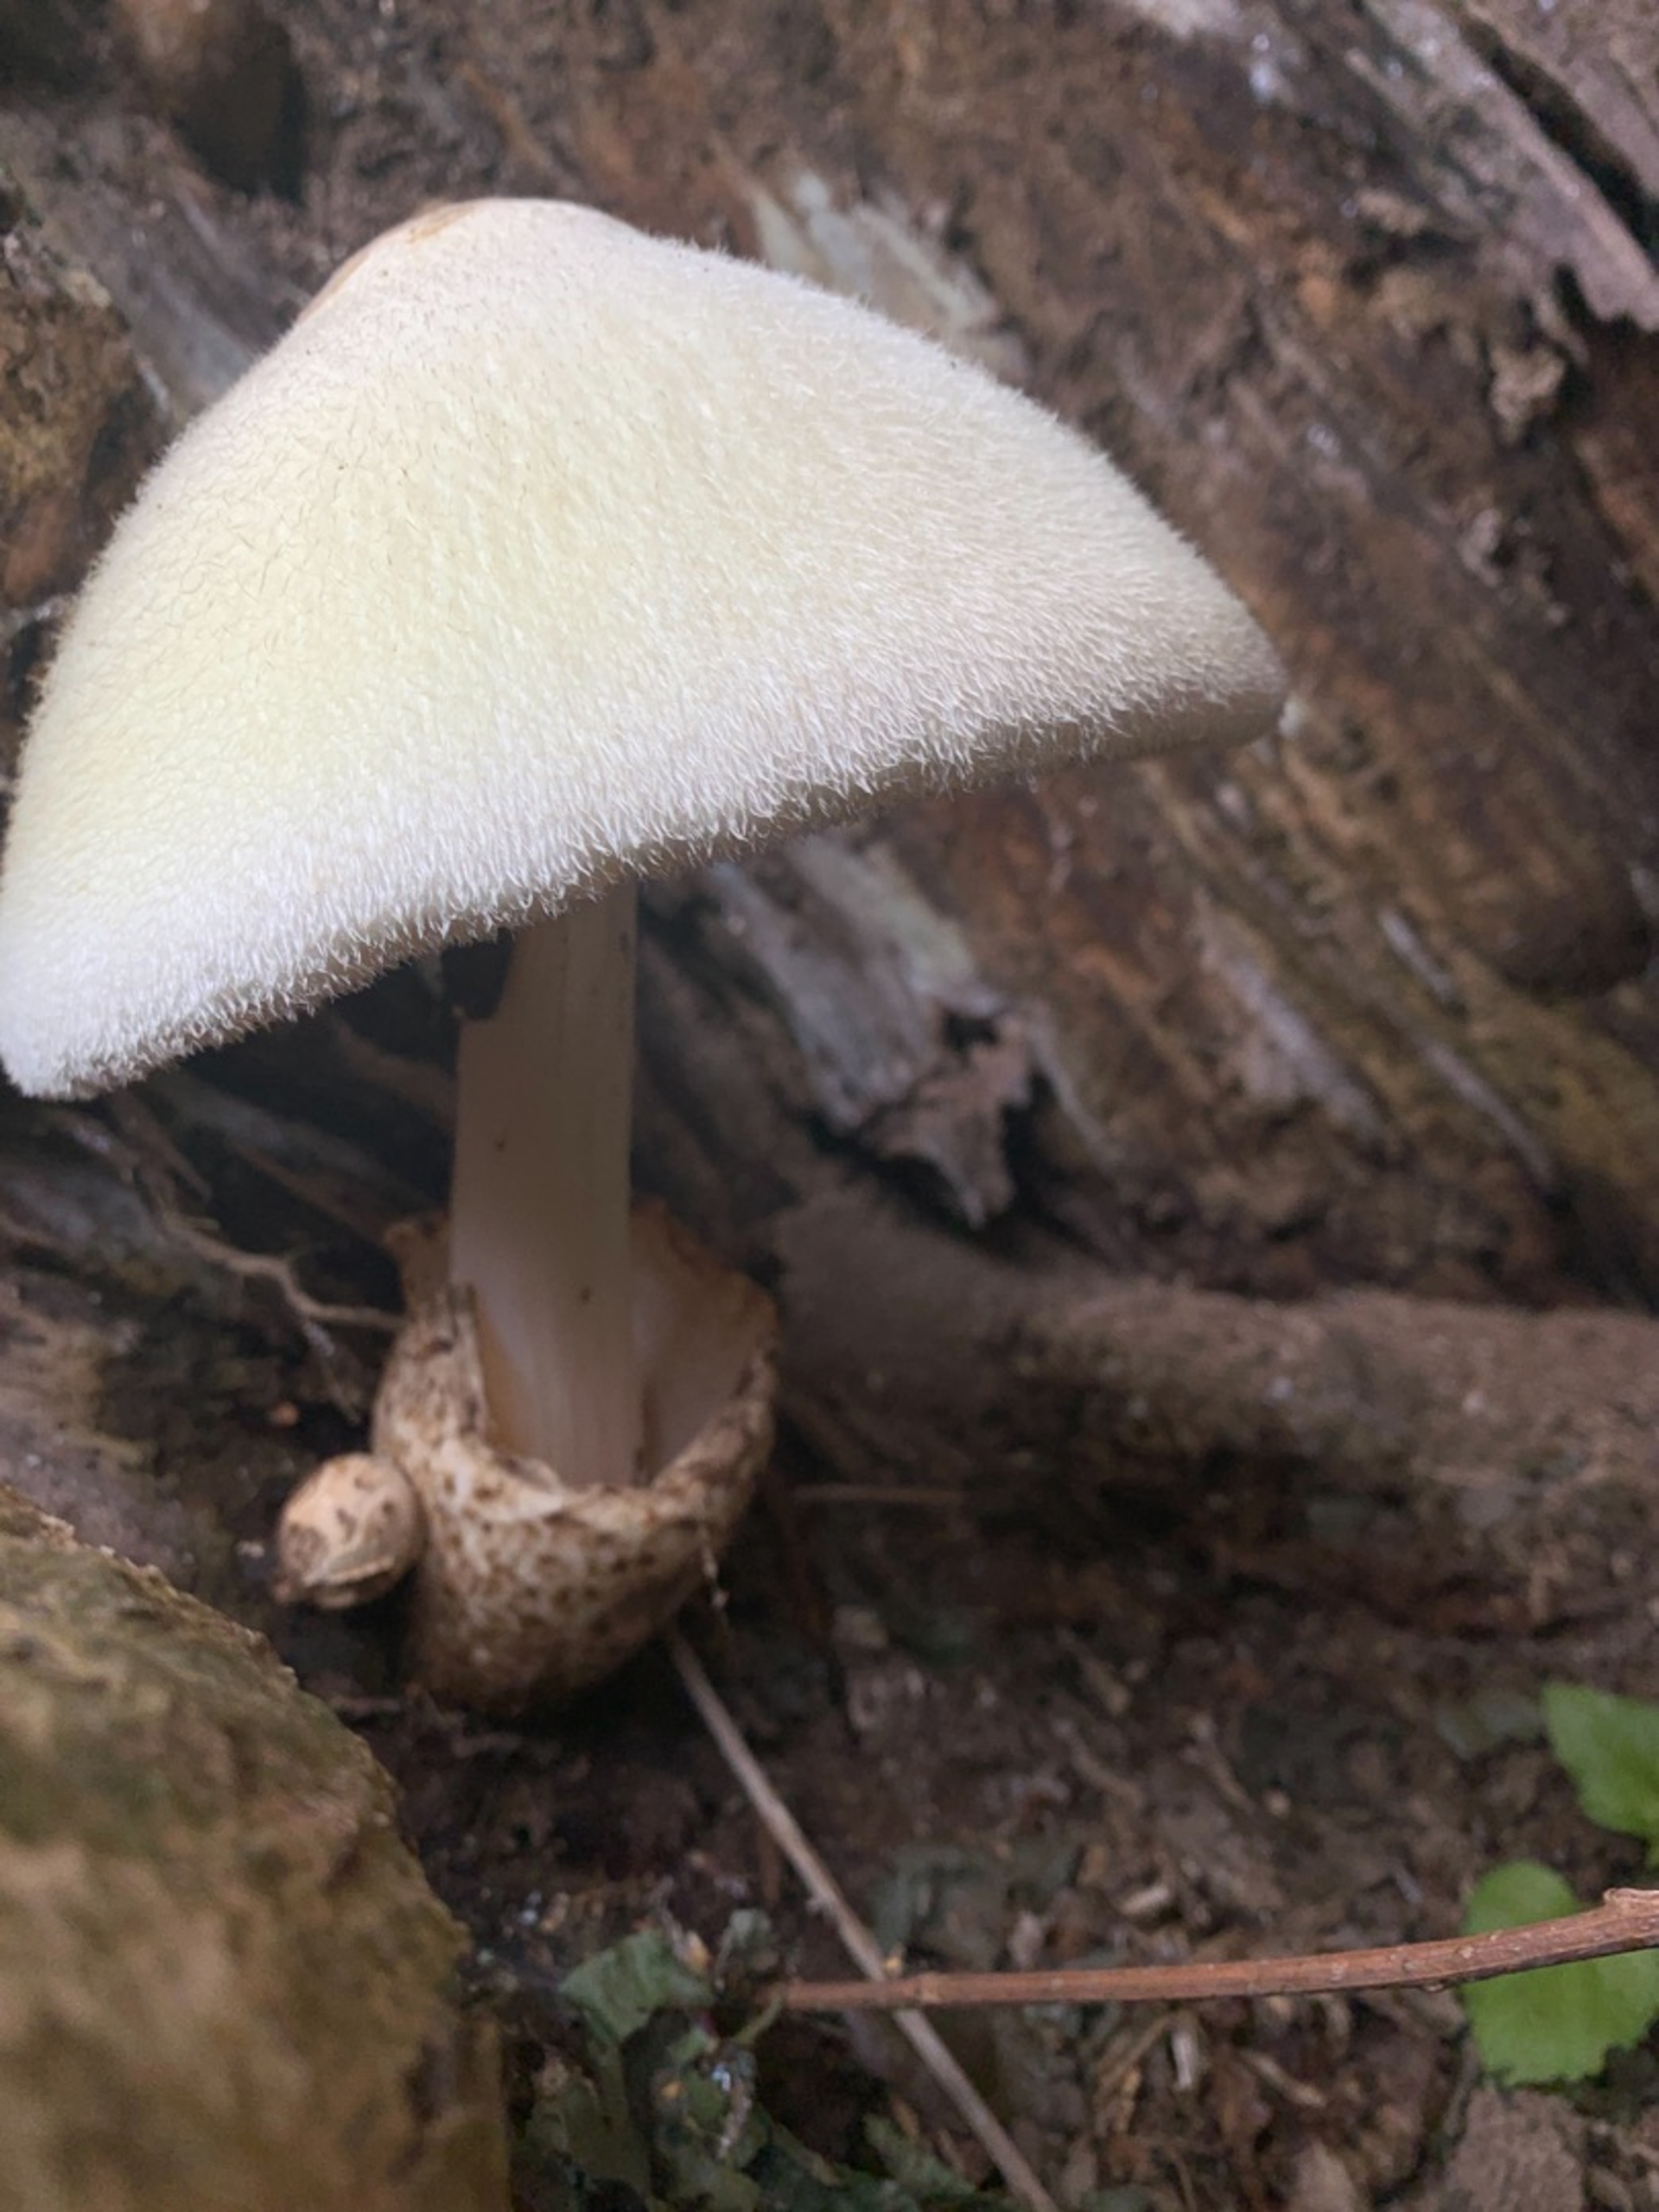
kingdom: Fungi
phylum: Basidiomycota
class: Agaricomycetes
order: Agaricales
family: Pluteaceae
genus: Volvariella
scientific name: Volvariella bombycina
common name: Silkehåret posesvamp
